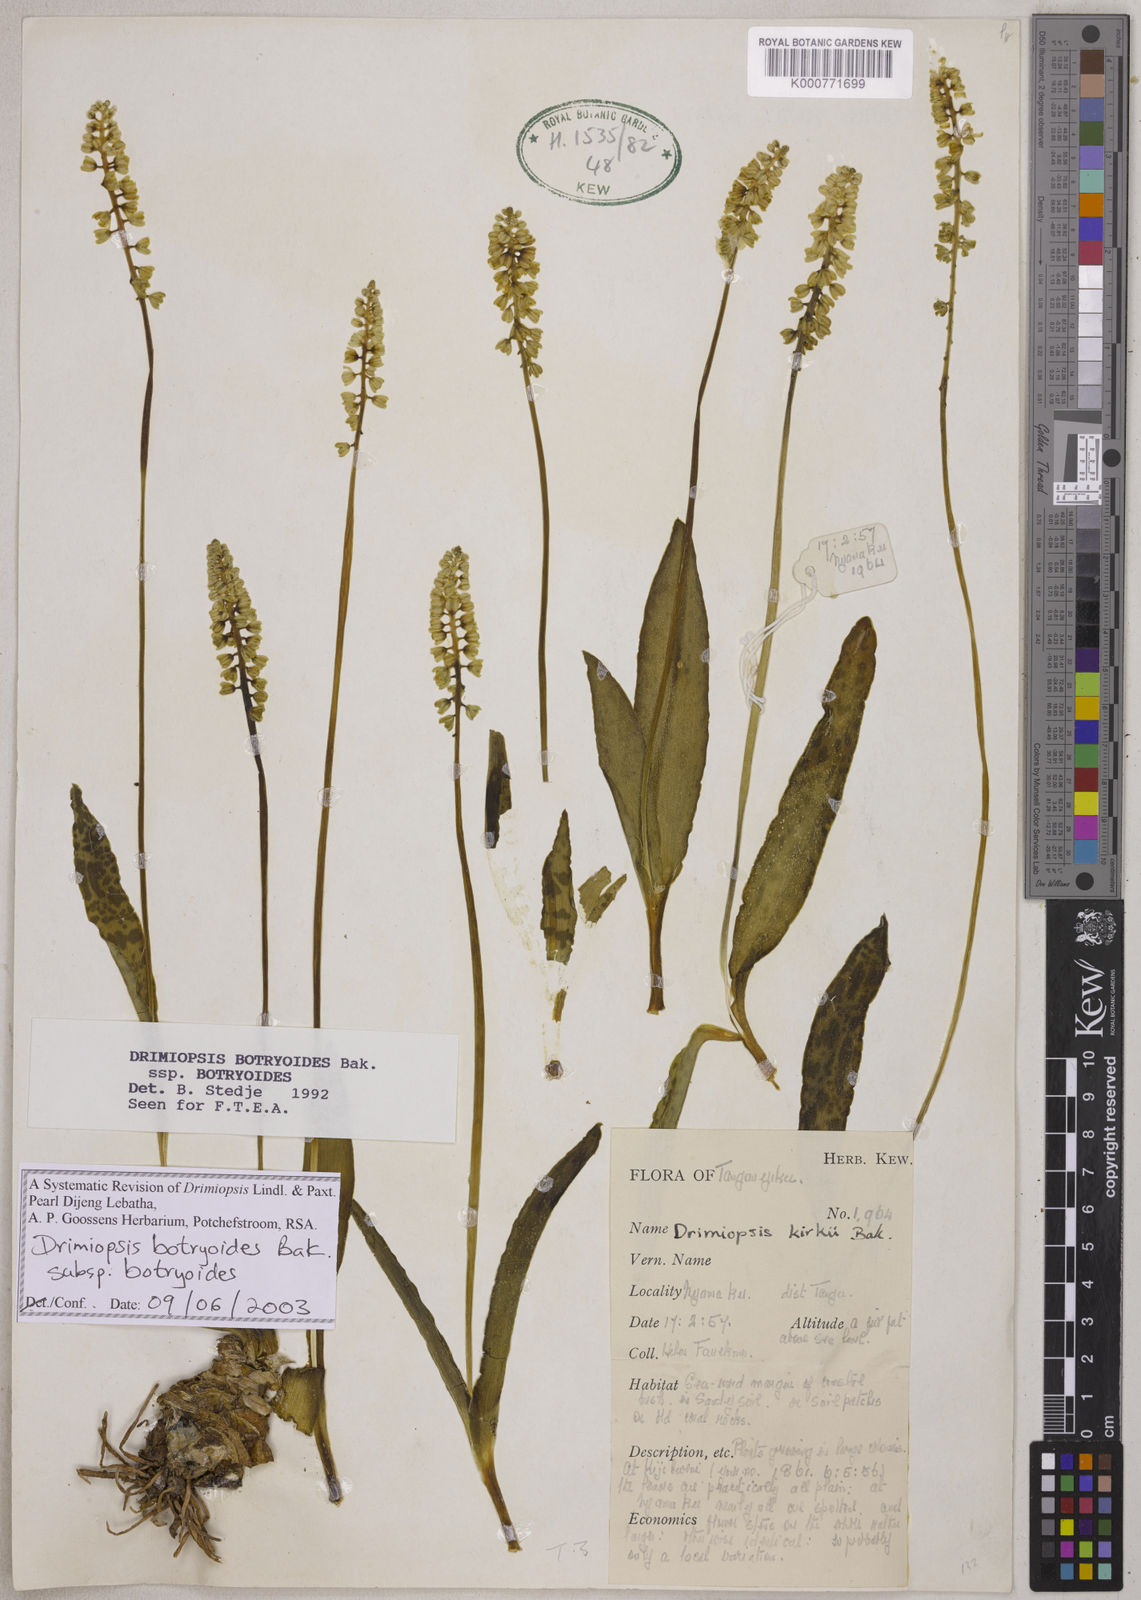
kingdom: Plantae
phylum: Tracheophyta
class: Liliopsida
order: Asparagales
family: Asparagaceae
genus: Drimiopsis
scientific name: Drimiopsis botryoides
